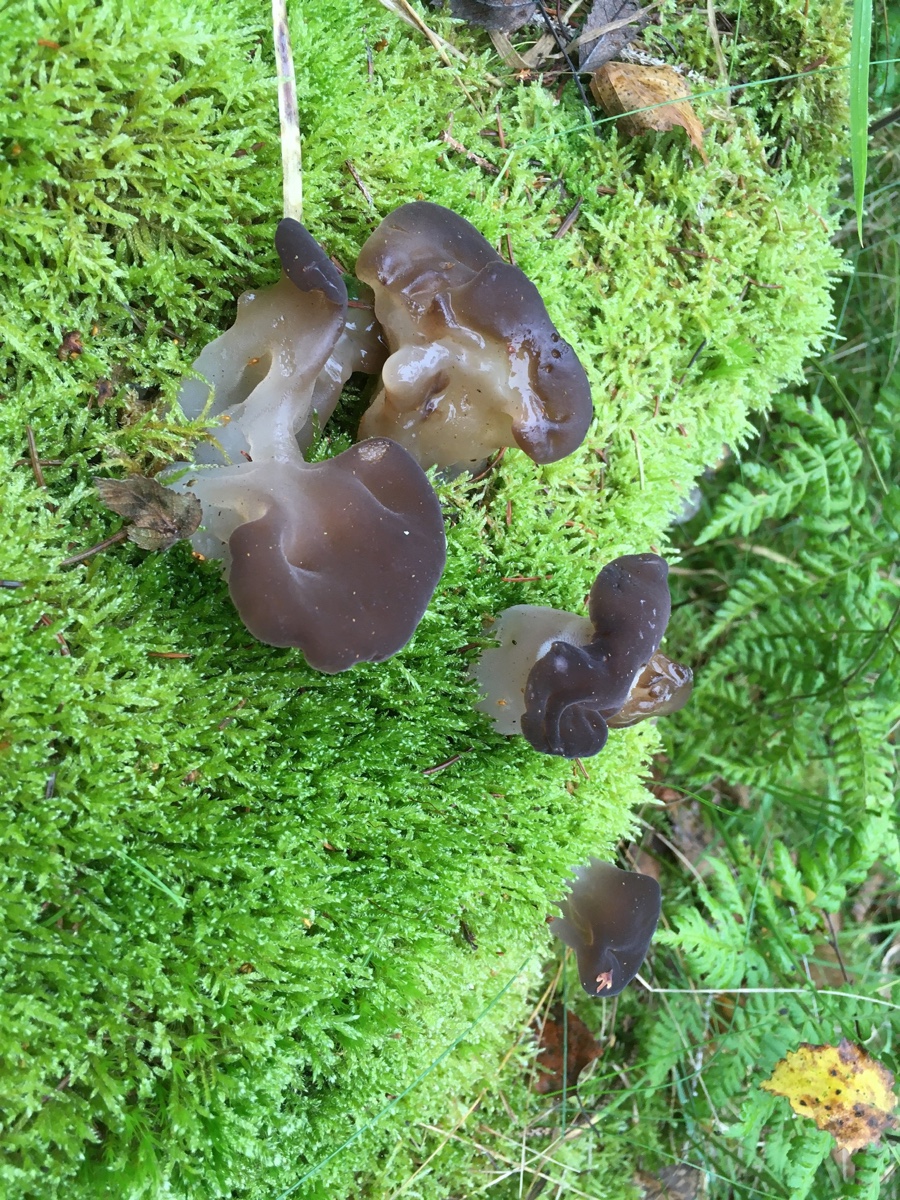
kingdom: Fungi
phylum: Basidiomycota
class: Agaricomycetes
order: Auriculariales
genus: Pseudohydnum
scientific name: Pseudohydnum gelatinosum
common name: bævretand
